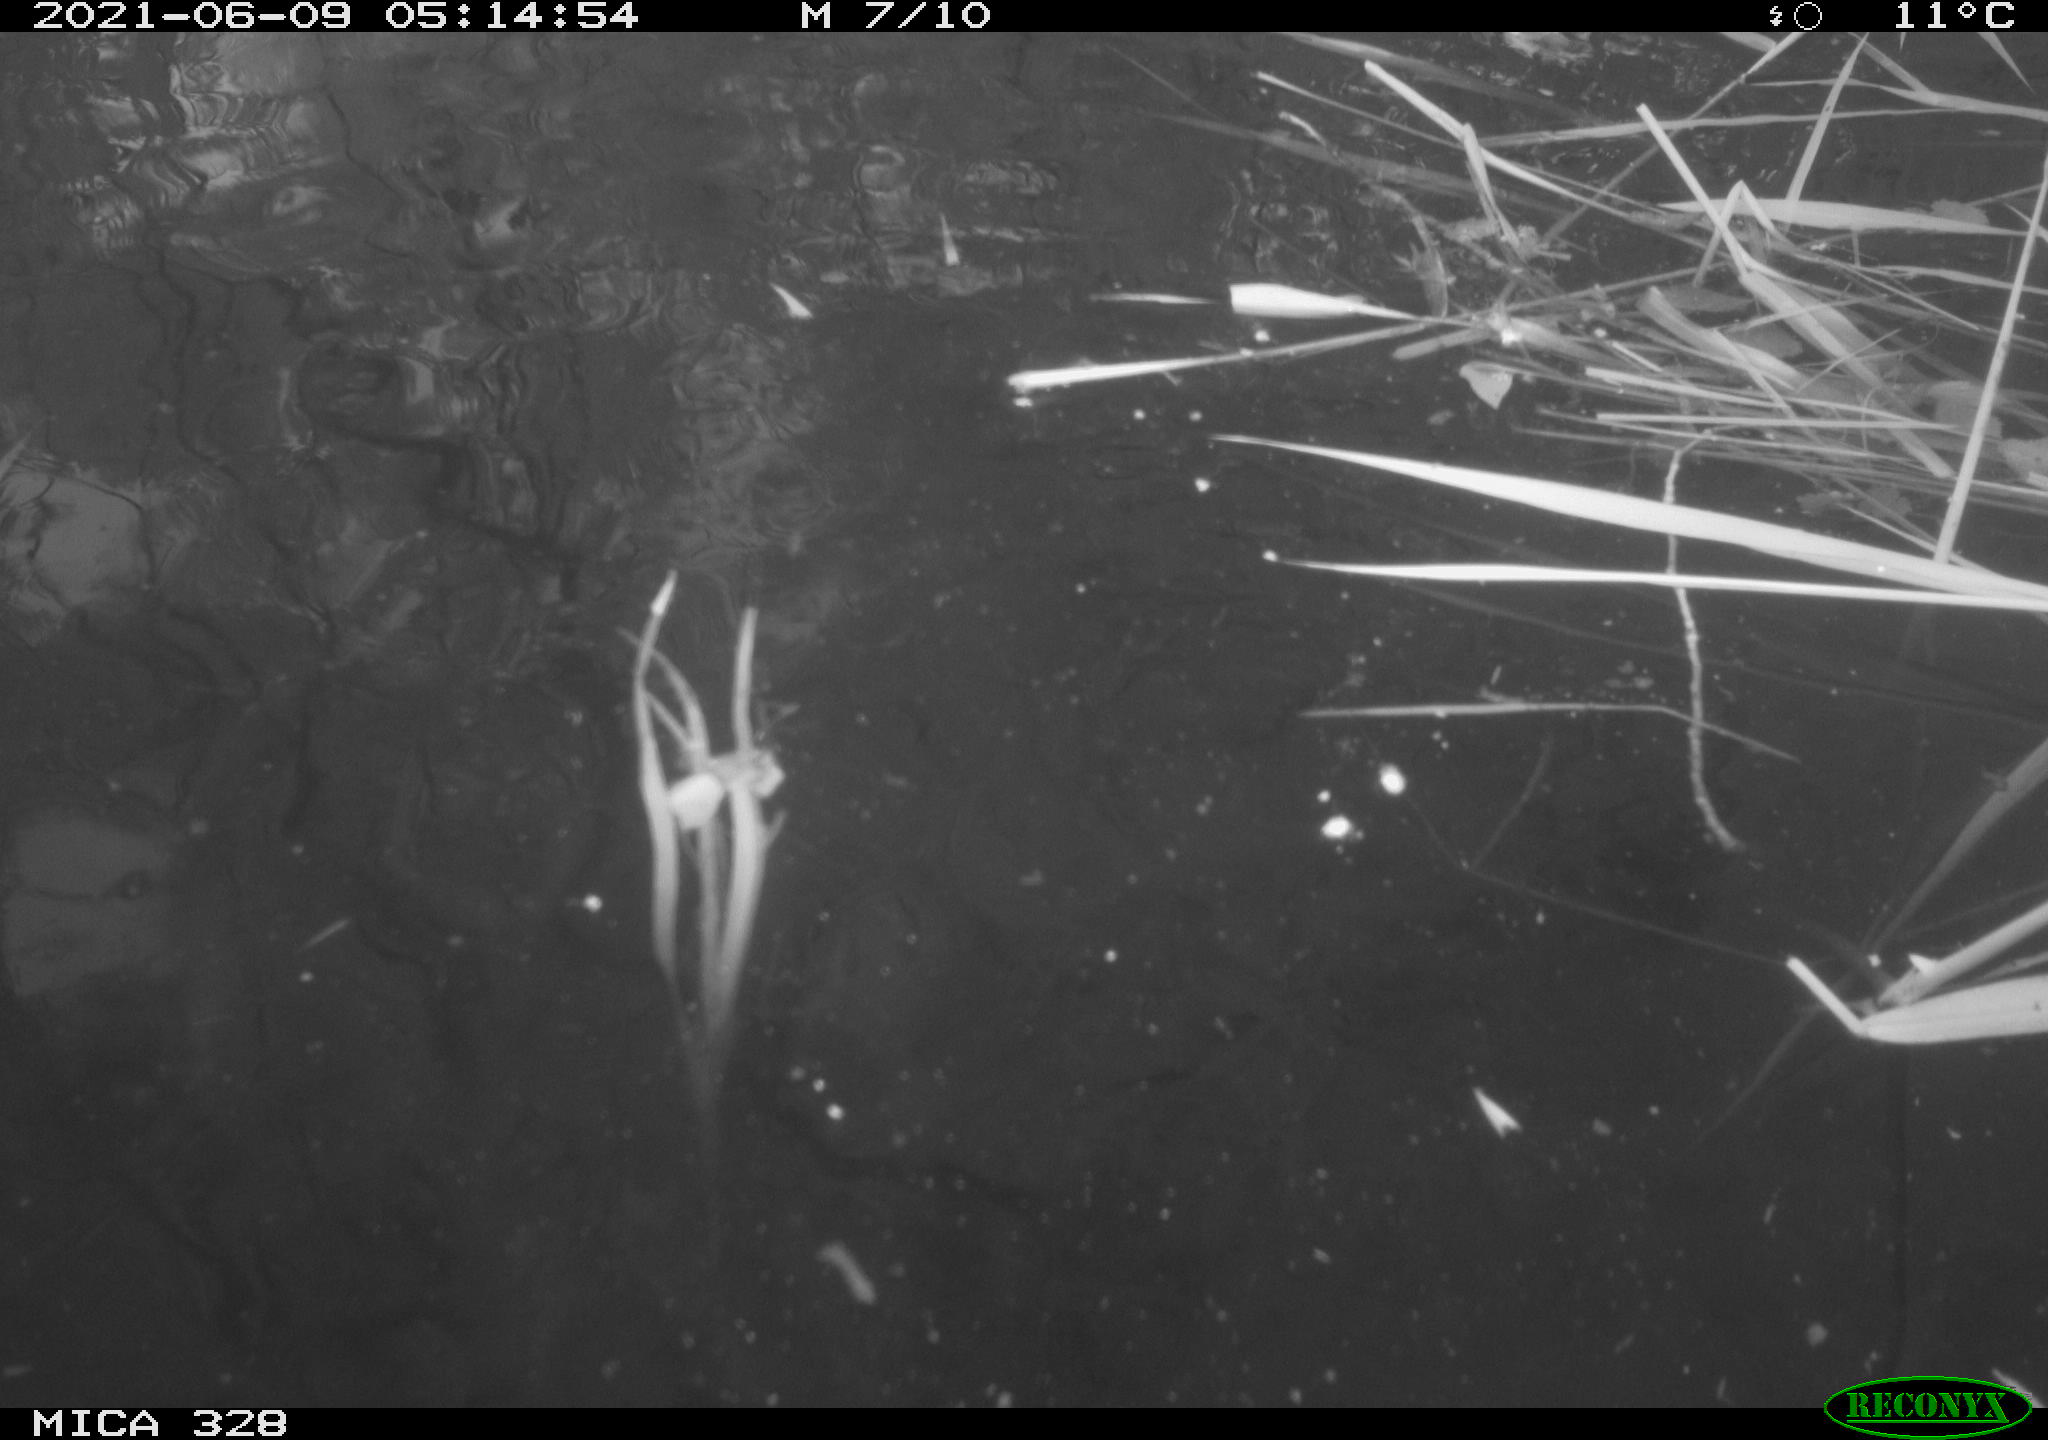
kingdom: Animalia
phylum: Chordata
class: Aves
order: Anseriformes
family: Anatidae
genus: Aix
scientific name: Aix galericulata
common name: Mandarin duck
